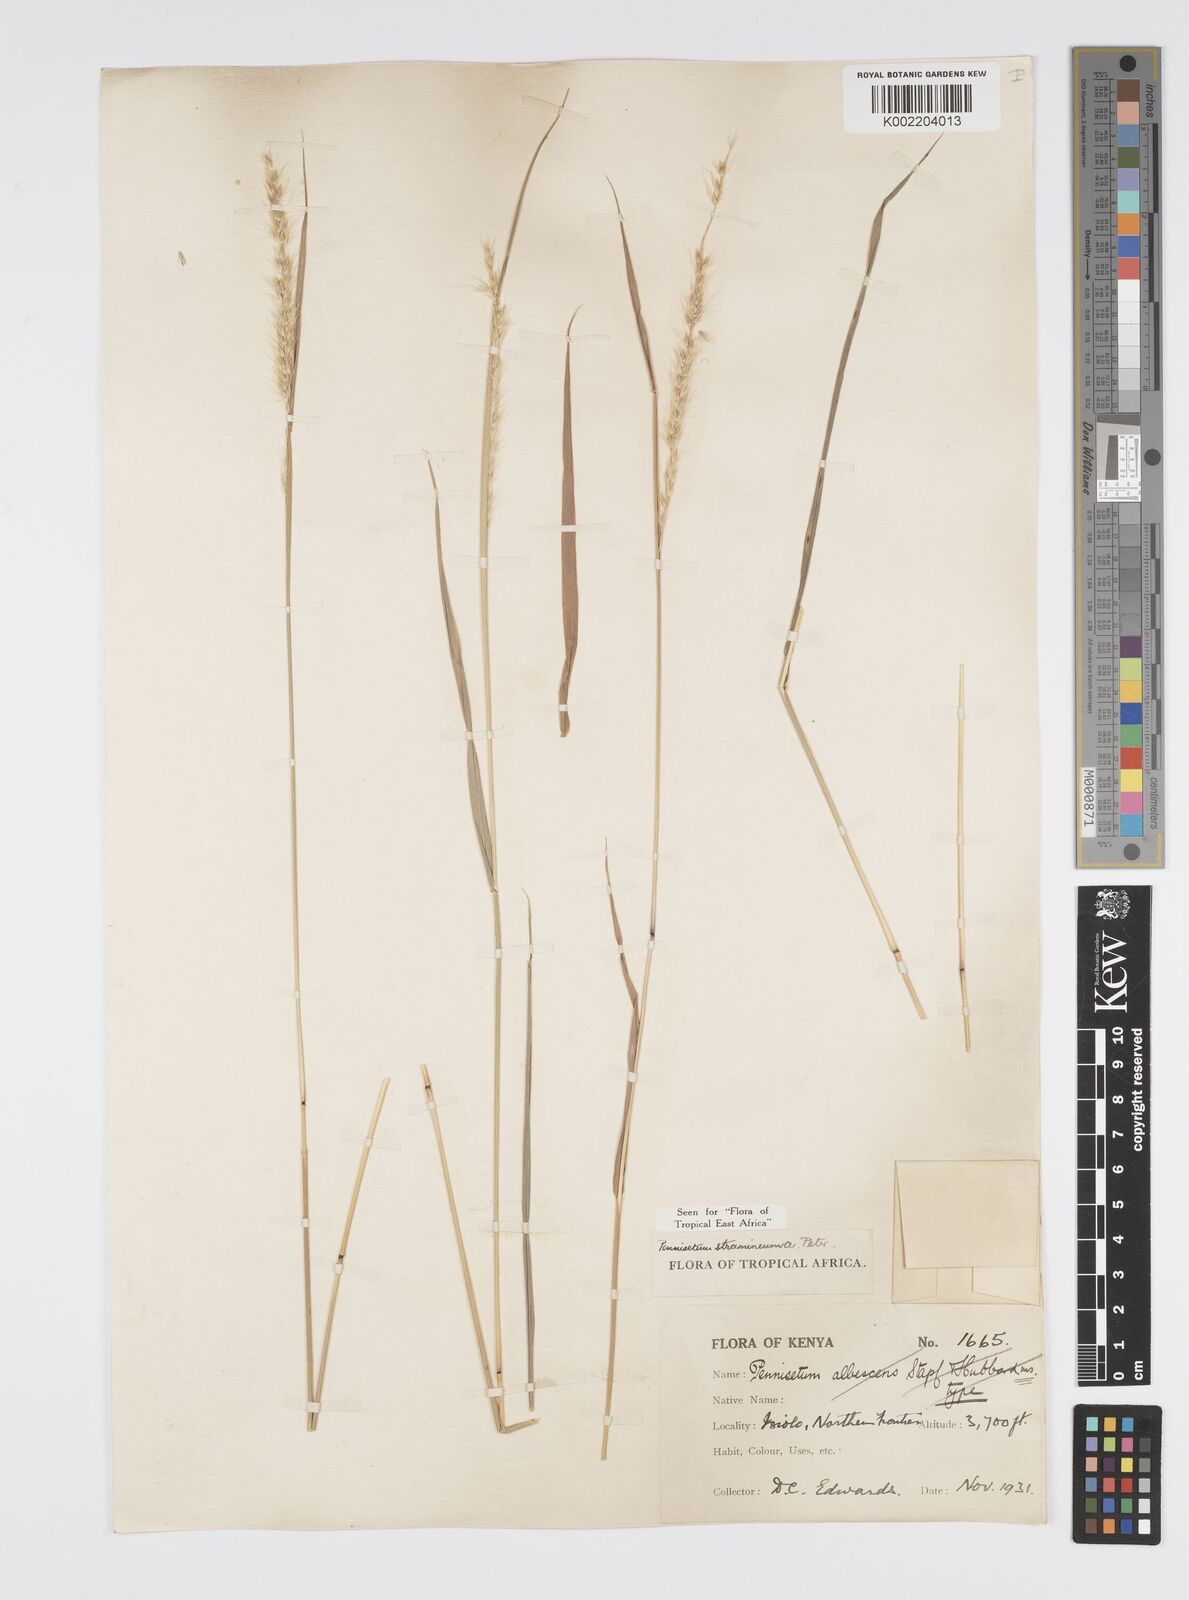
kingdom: Plantae
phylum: Tracheophyta
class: Liliopsida
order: Poales
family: Poaceae
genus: Cenchrus
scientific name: Cenchrus stramineus
